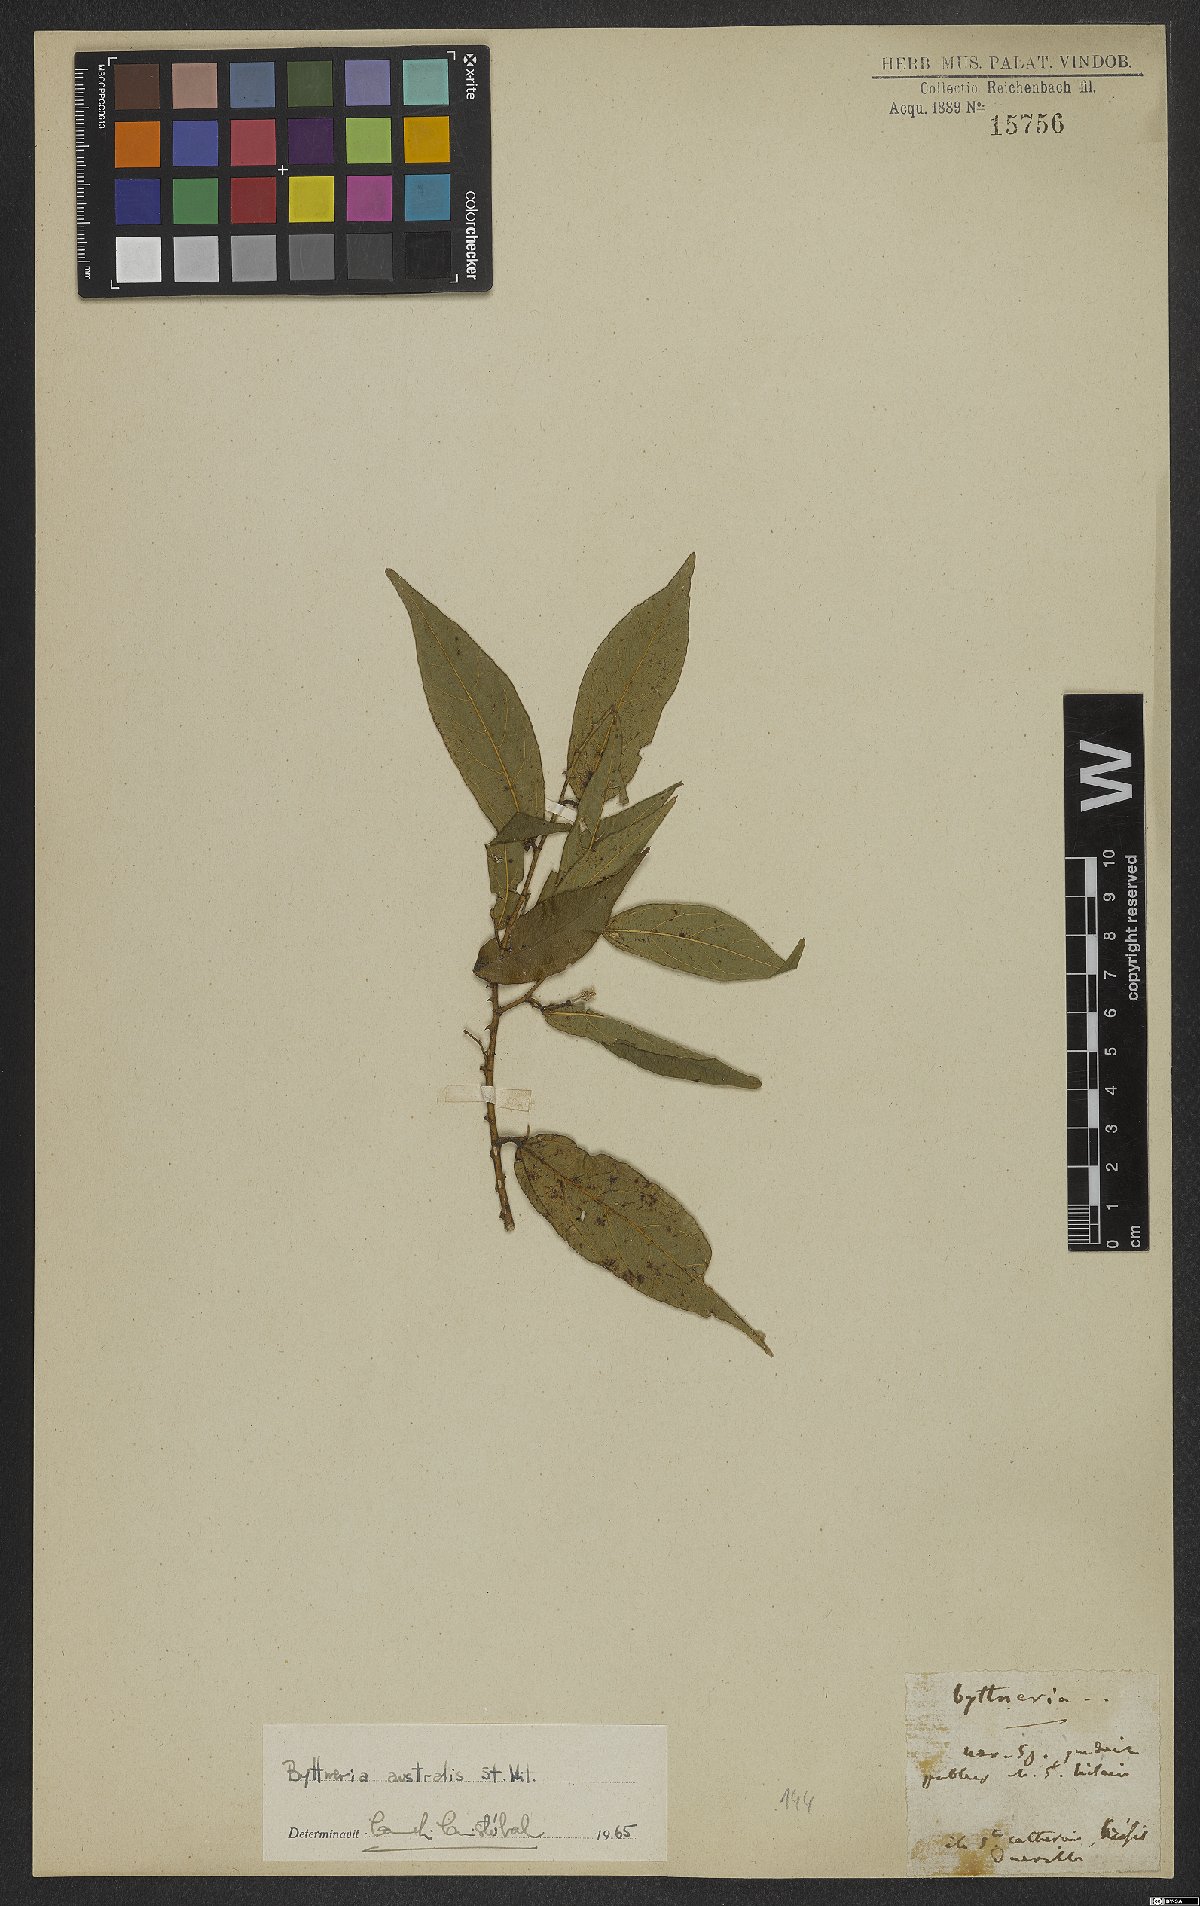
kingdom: Plantae
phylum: Tracheophyta
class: Magnoliopsida
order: Malvales
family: Malvaceae
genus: Byttneria
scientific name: Byttneria australis
